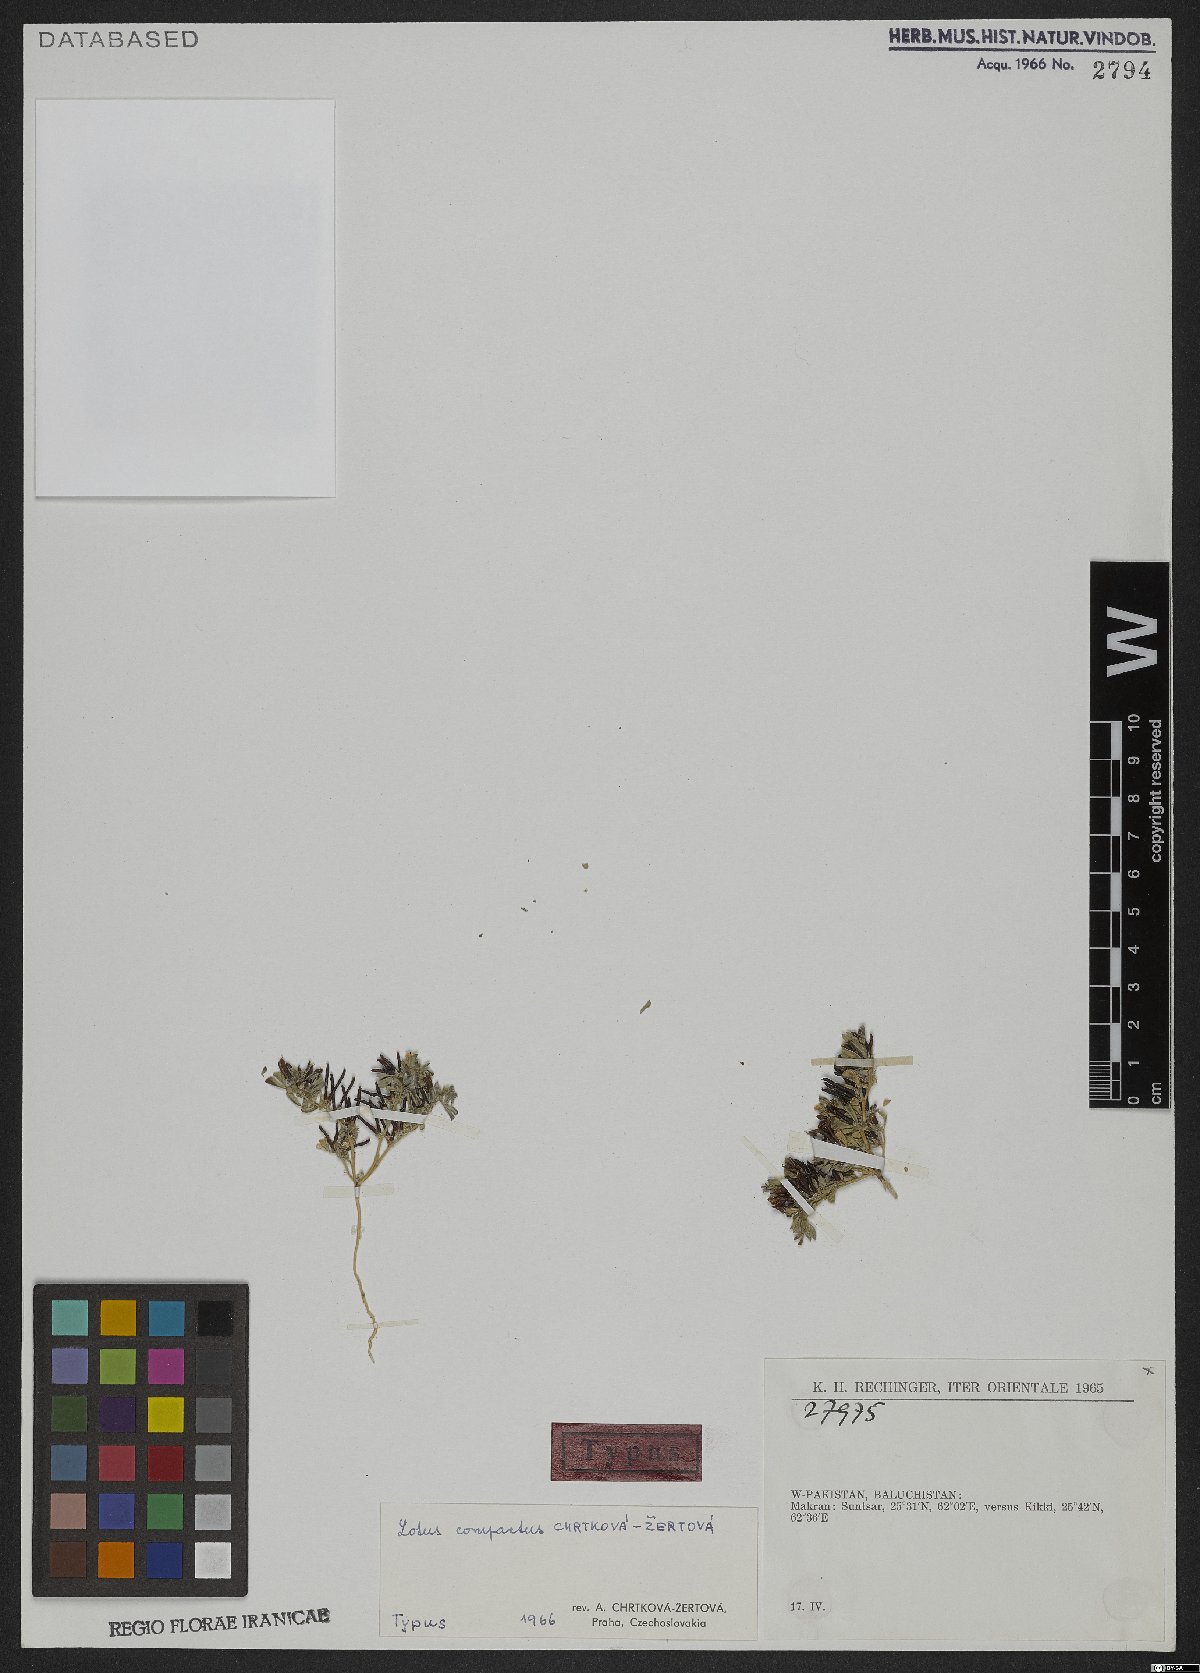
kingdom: Plantae
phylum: Tracheophyta
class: Magnoliopsida
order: Fabales
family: Fabaceae
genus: Lotus
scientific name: Lotus compactus
